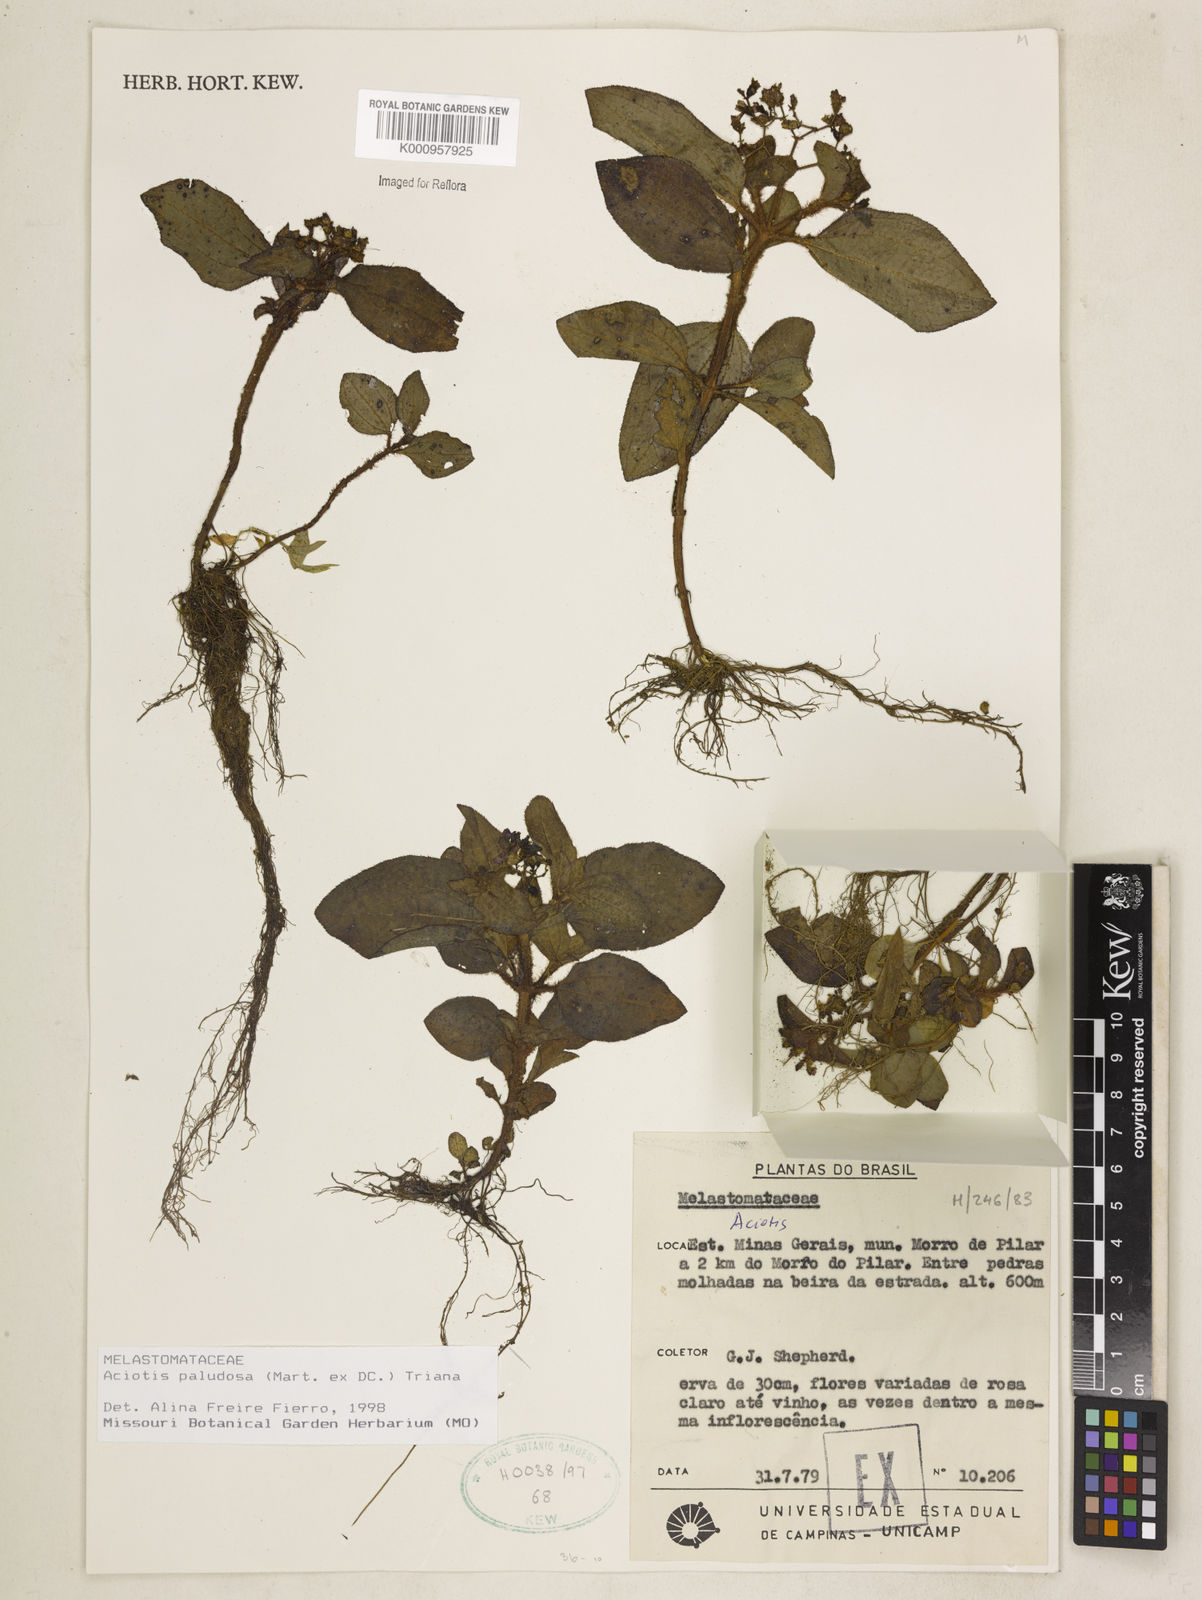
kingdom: Plantae
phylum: Tracheophyta
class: Magnoliopsida
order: Myrtales
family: Melastomataceae
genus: Aciotis
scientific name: Aciotis paludosa
